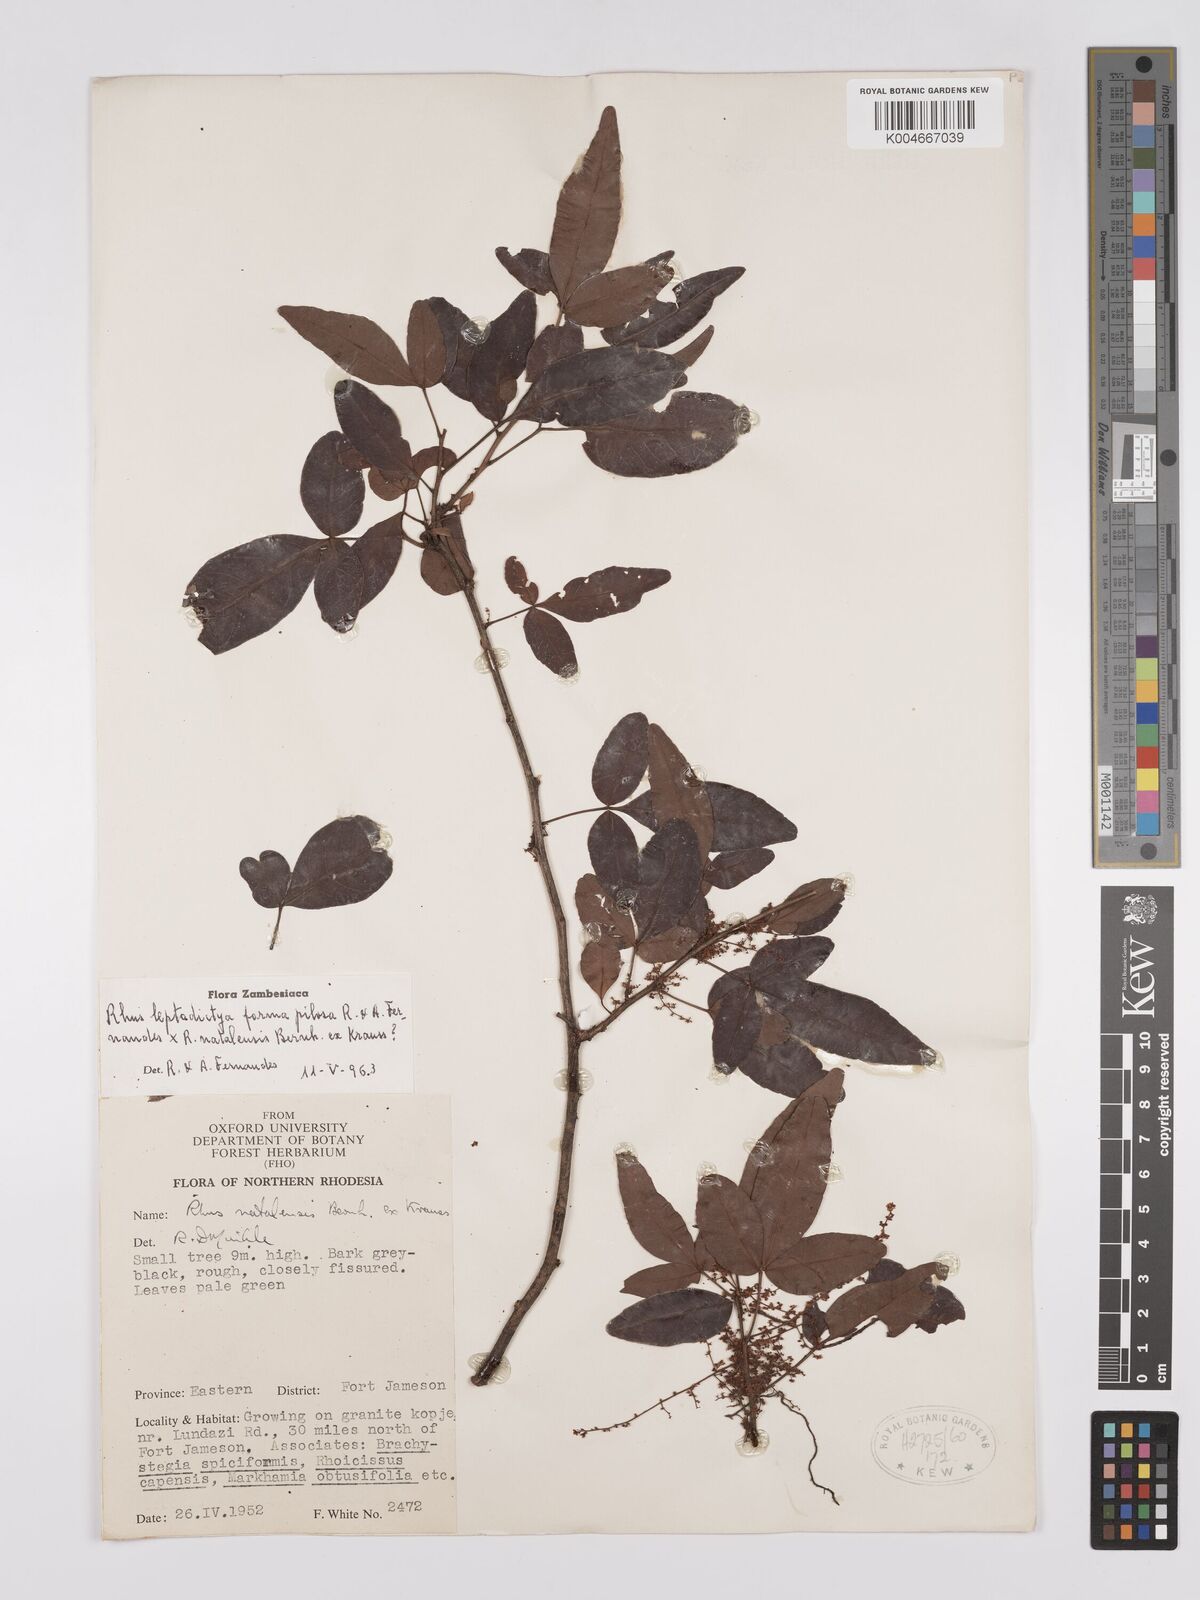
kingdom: Plantae
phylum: Tracheophyta
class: Magnoliopsida
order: Sapindales
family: Anacardiaceae
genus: Searsia
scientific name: Searsia leptodictya
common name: Mountain karee
